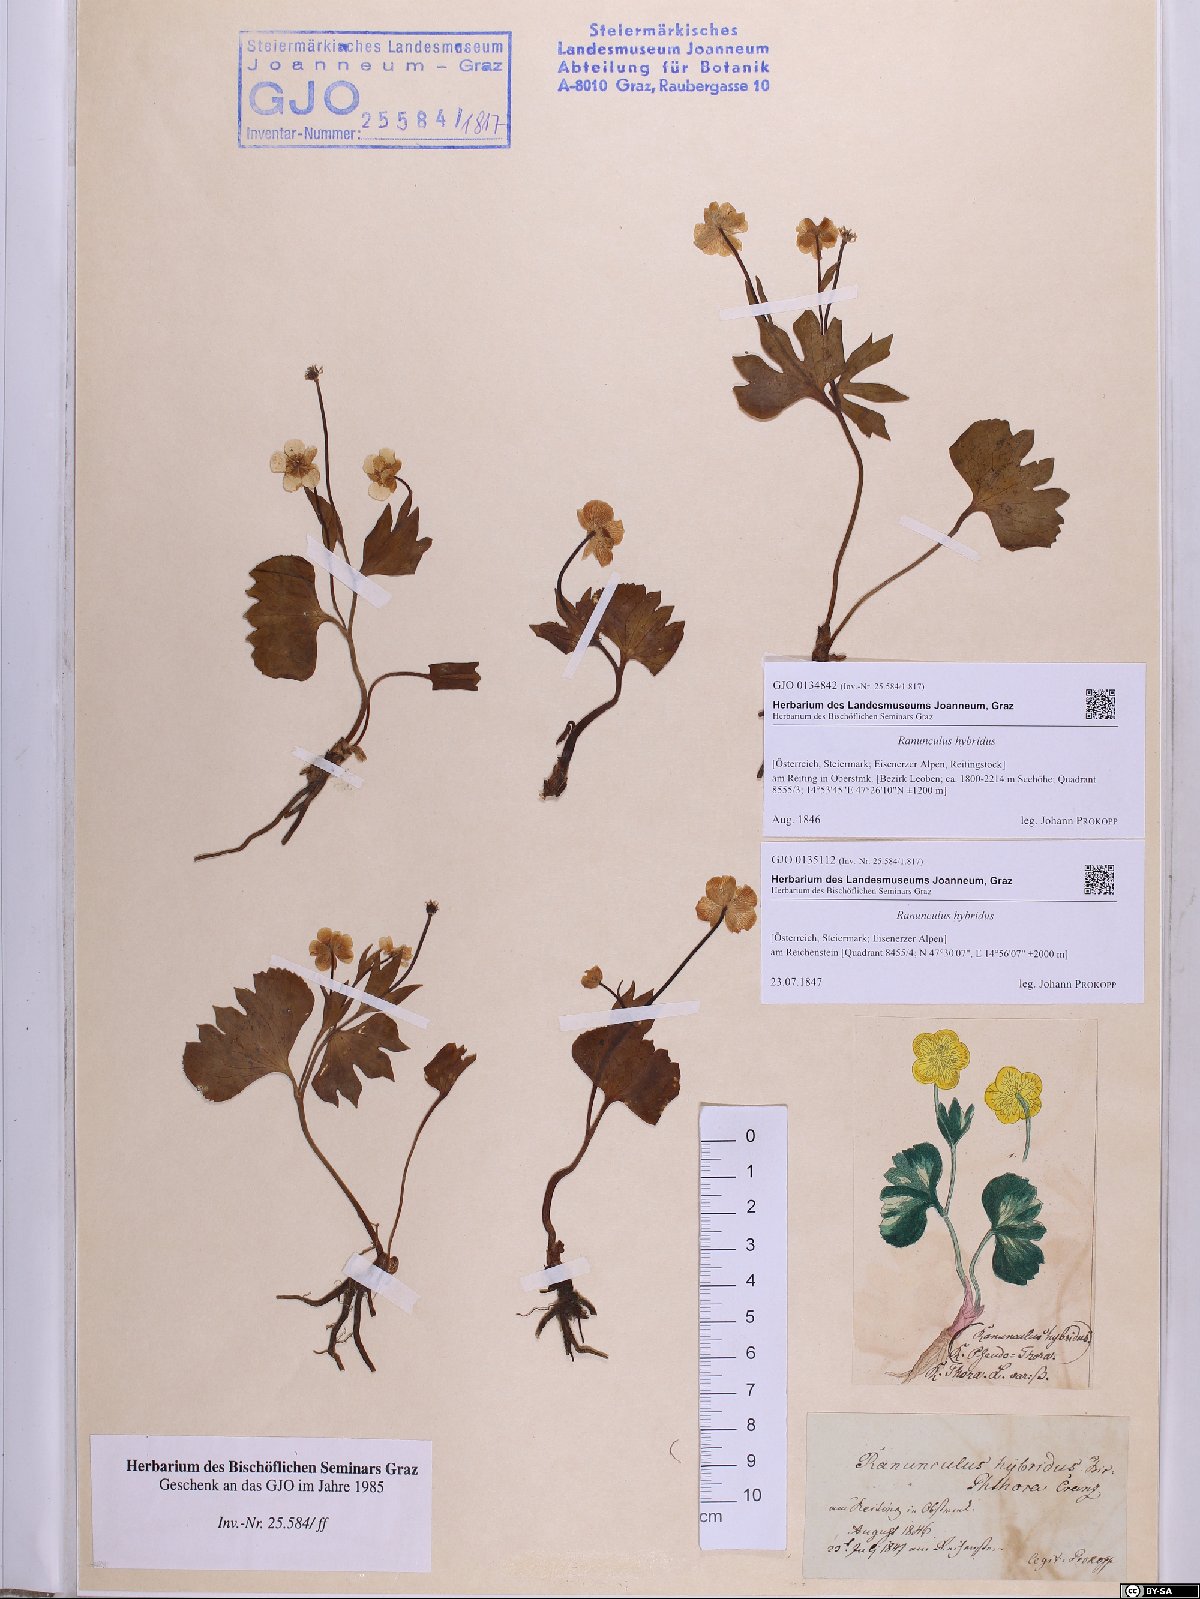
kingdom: Plantae
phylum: Tracheophyta
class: Magnoliopsida
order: Ranunculales
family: Ranunculaceae
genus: Ranunculus
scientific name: Ranunculus hybridus
